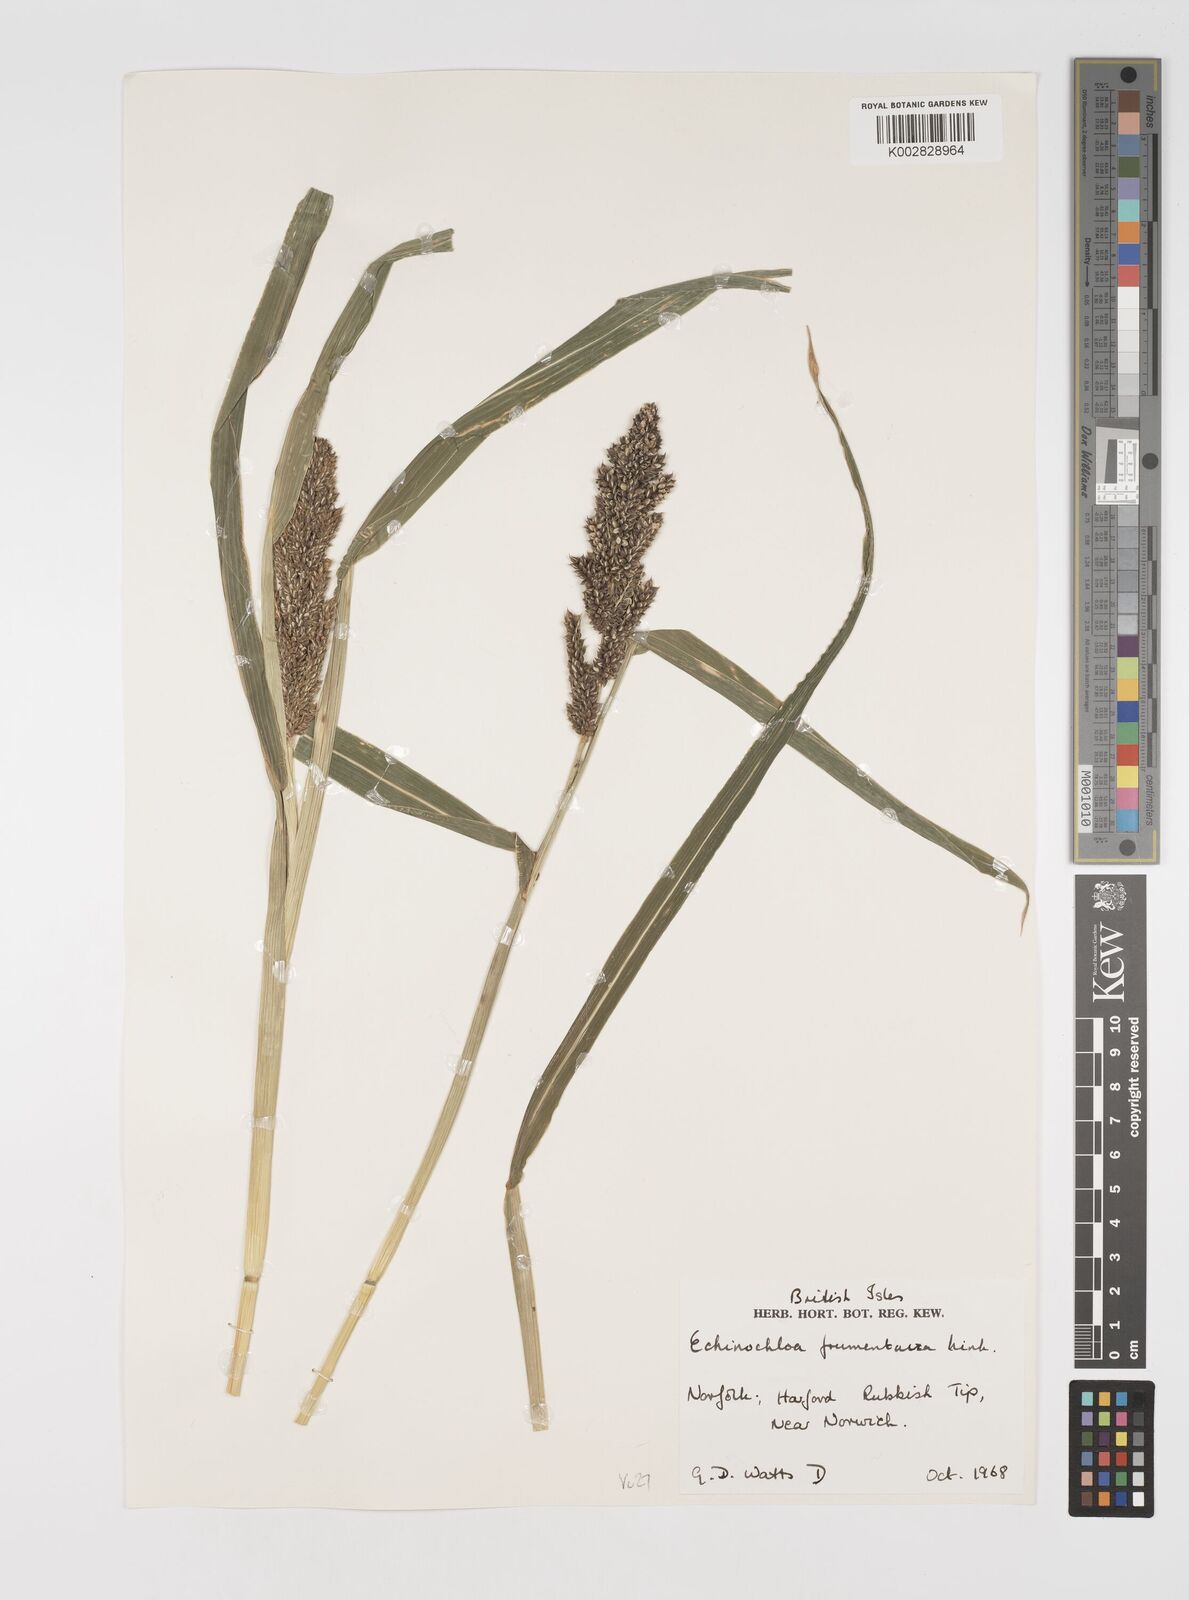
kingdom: Plantae
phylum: Tracheophyta
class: Liliopsida
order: Poales
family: Poaceae
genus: Echinochloa
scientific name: Echinochloa crus-galli
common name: Cockspur
